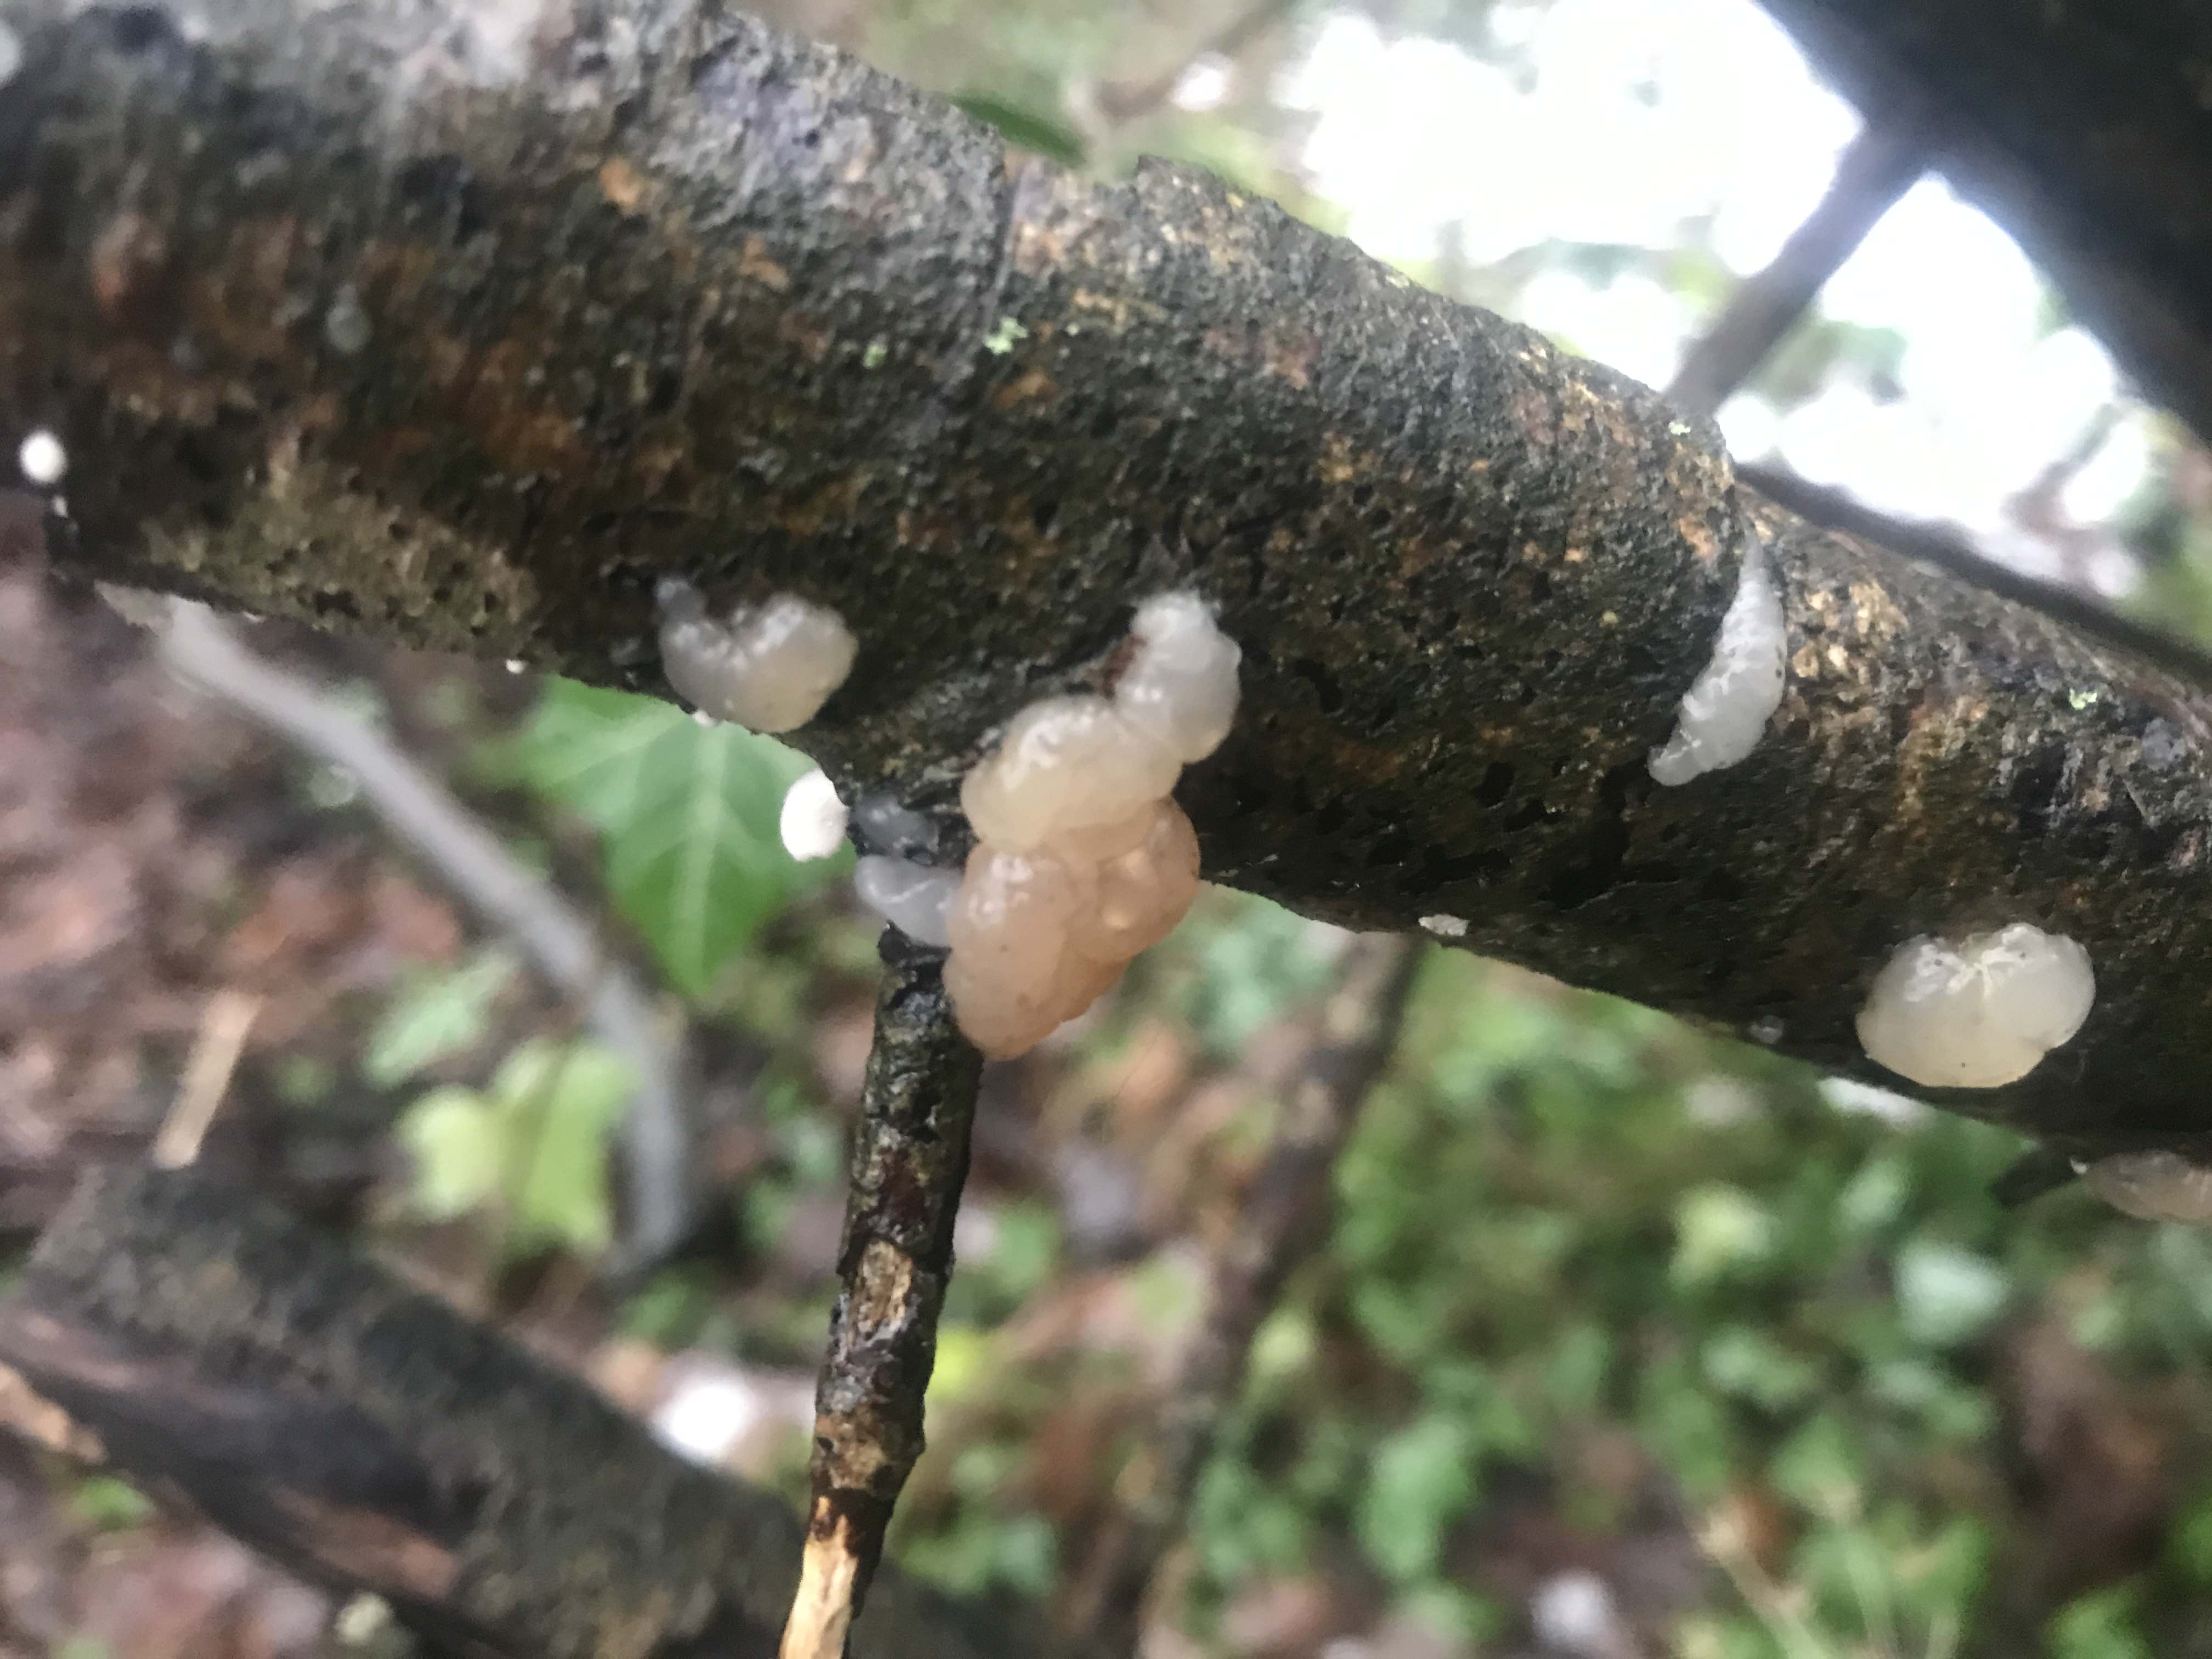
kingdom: Fungi
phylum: Basidiomycota
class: Agaricomycetes
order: Auriculariales
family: Hyaloriaceae
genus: Myxarium
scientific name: Myxarium
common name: bævretop
